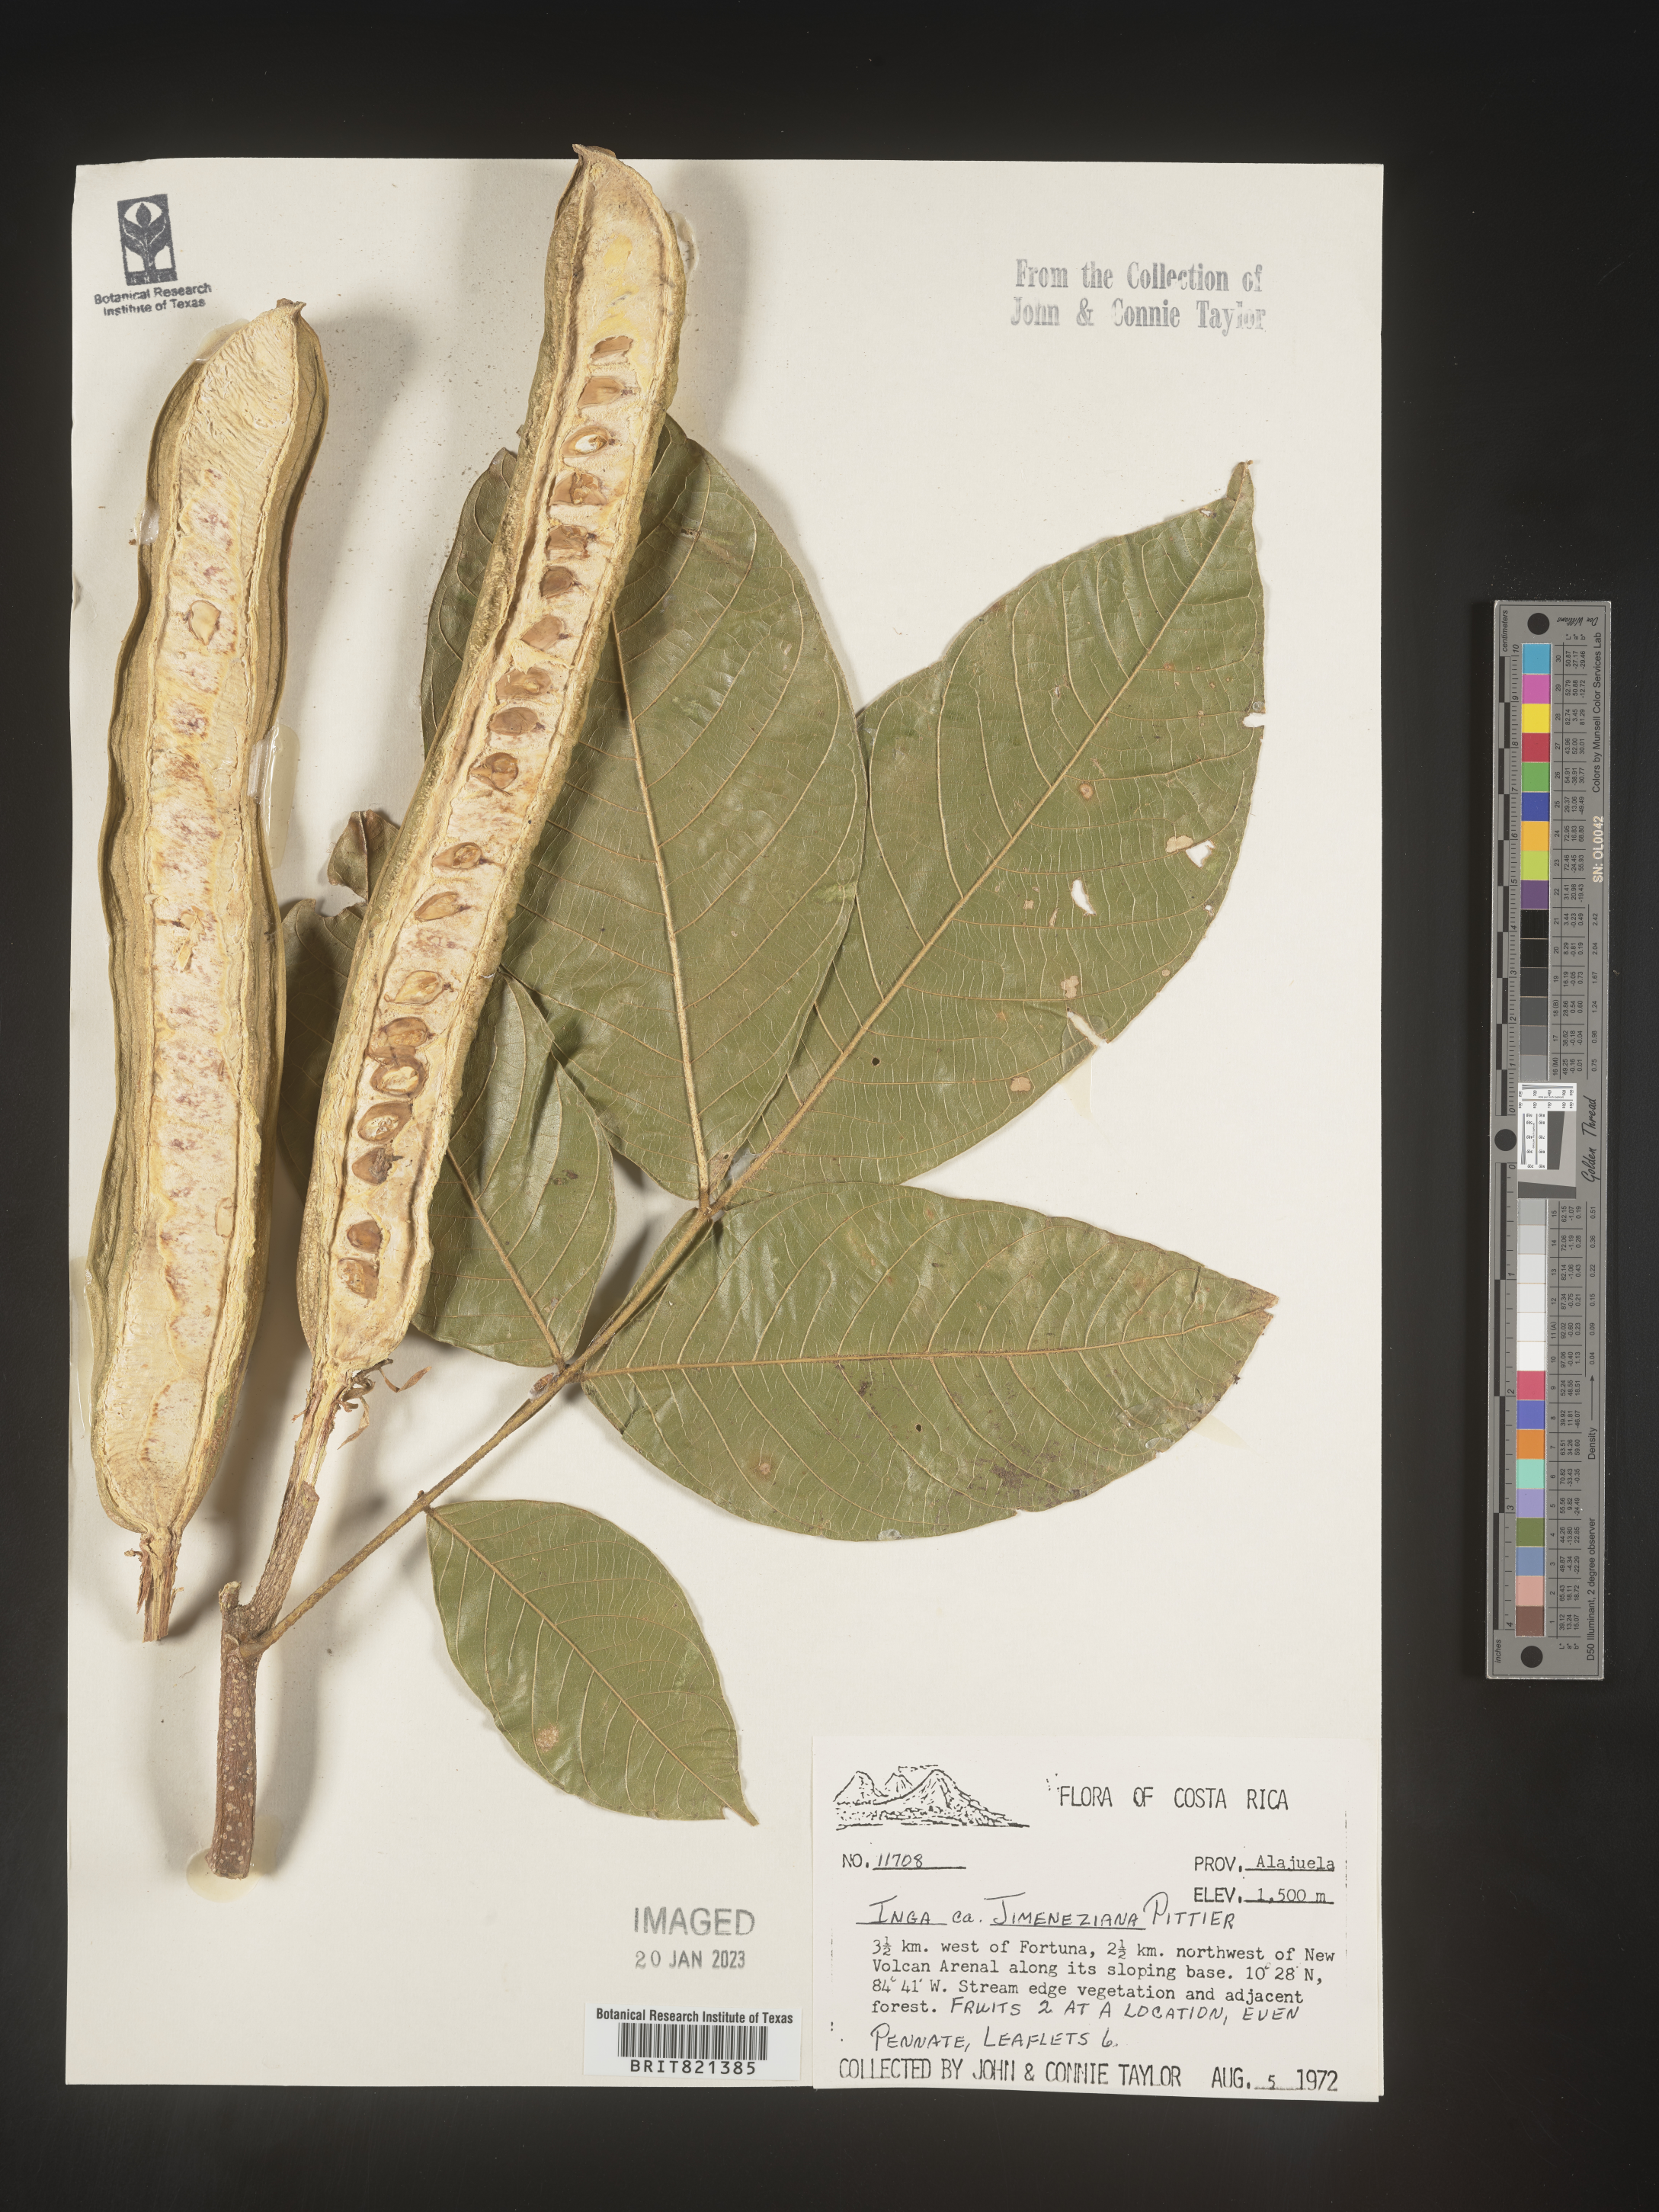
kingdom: Plantae
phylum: Tracheophyta
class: Magnoliopsida
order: Fabales
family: Fabaceae
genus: Inga
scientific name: Inga
